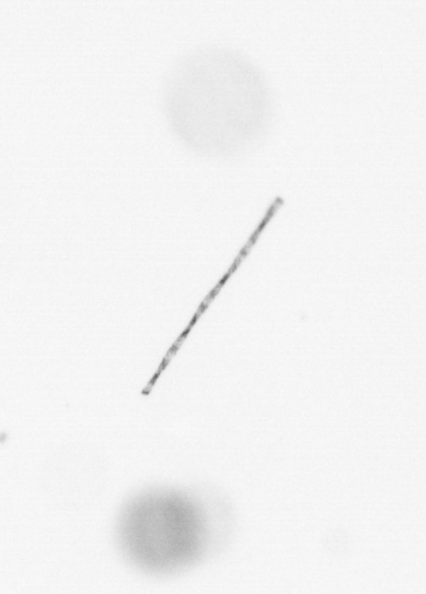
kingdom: Chromista
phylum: Ochrophyta
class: Bacillariophyceae
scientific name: Bacillariophyceae
